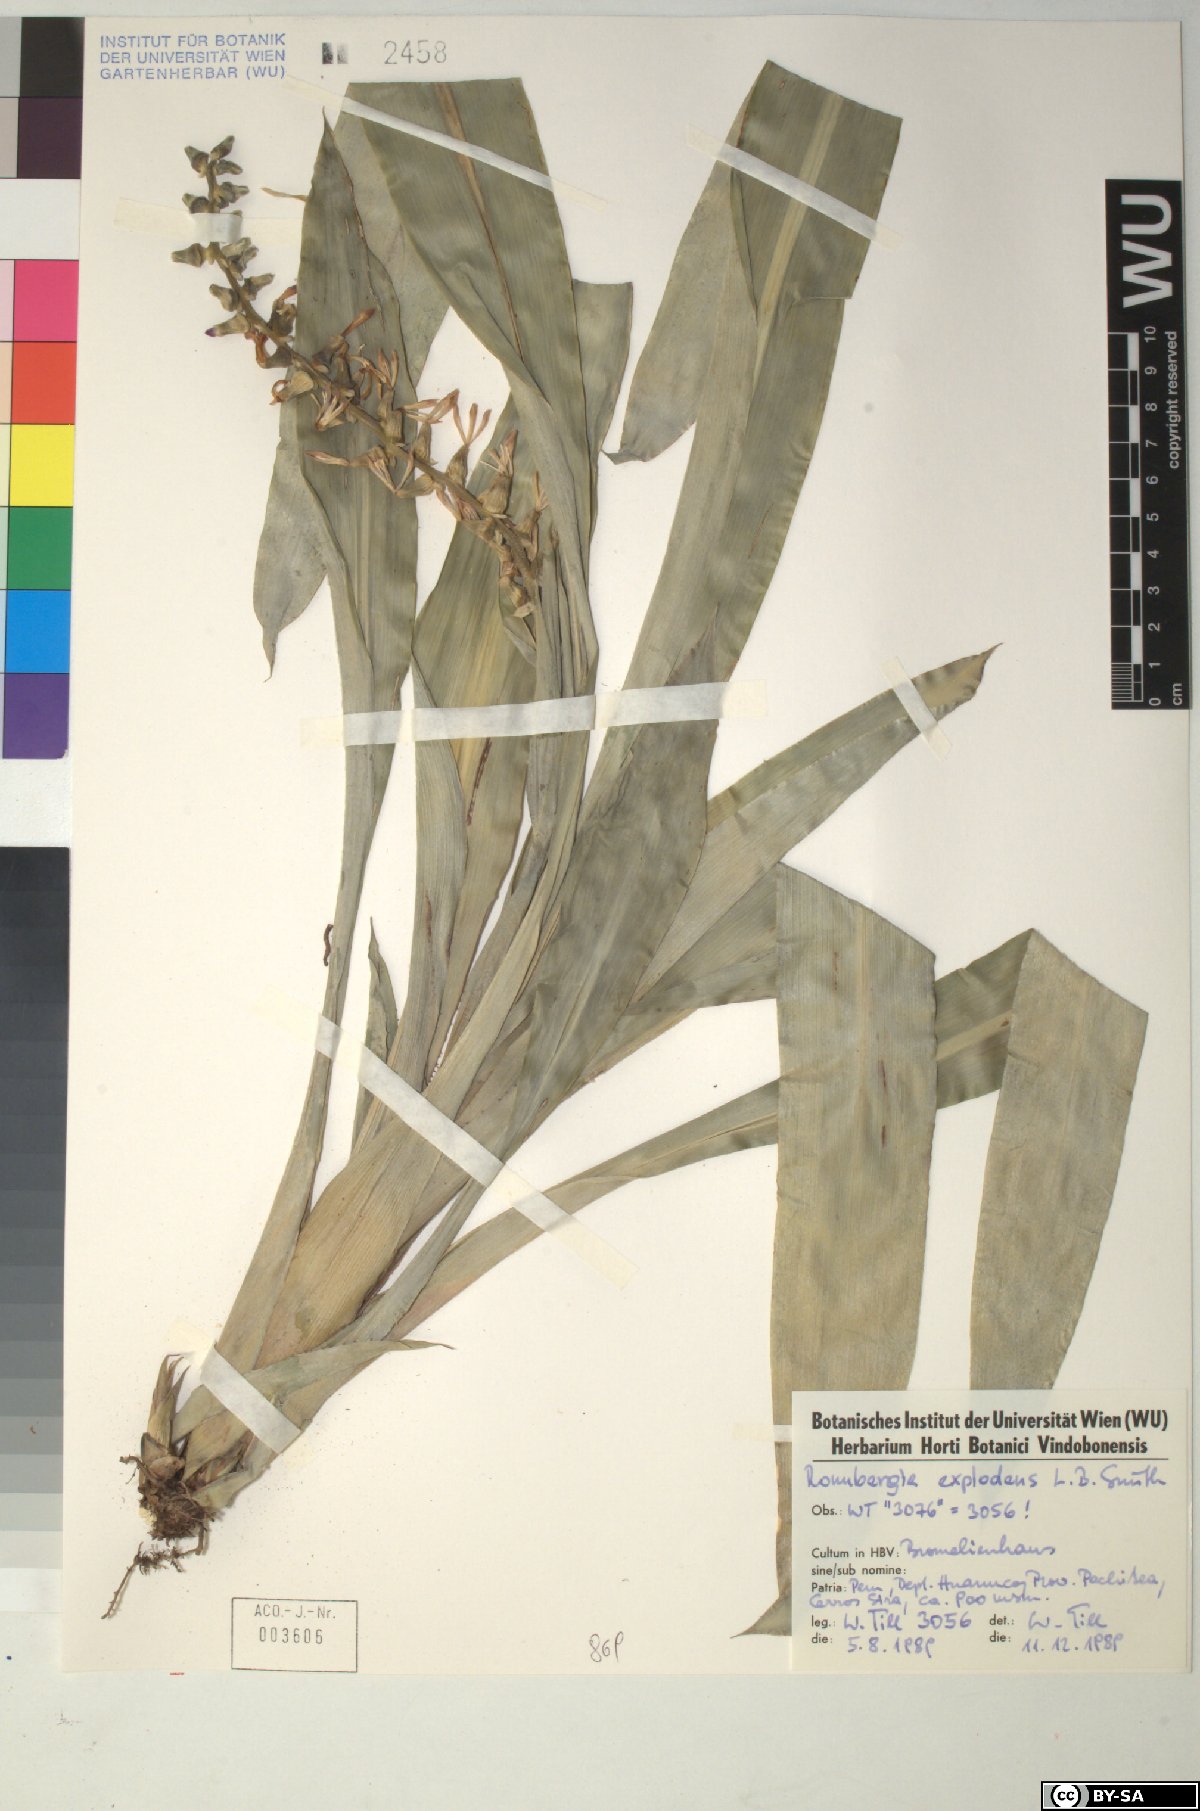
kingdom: Plantae
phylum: Tracheophyta
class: Liliopsida
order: Poales
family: Bromeliaceae
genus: Ronnbergia
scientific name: Ronnbergia explodens
